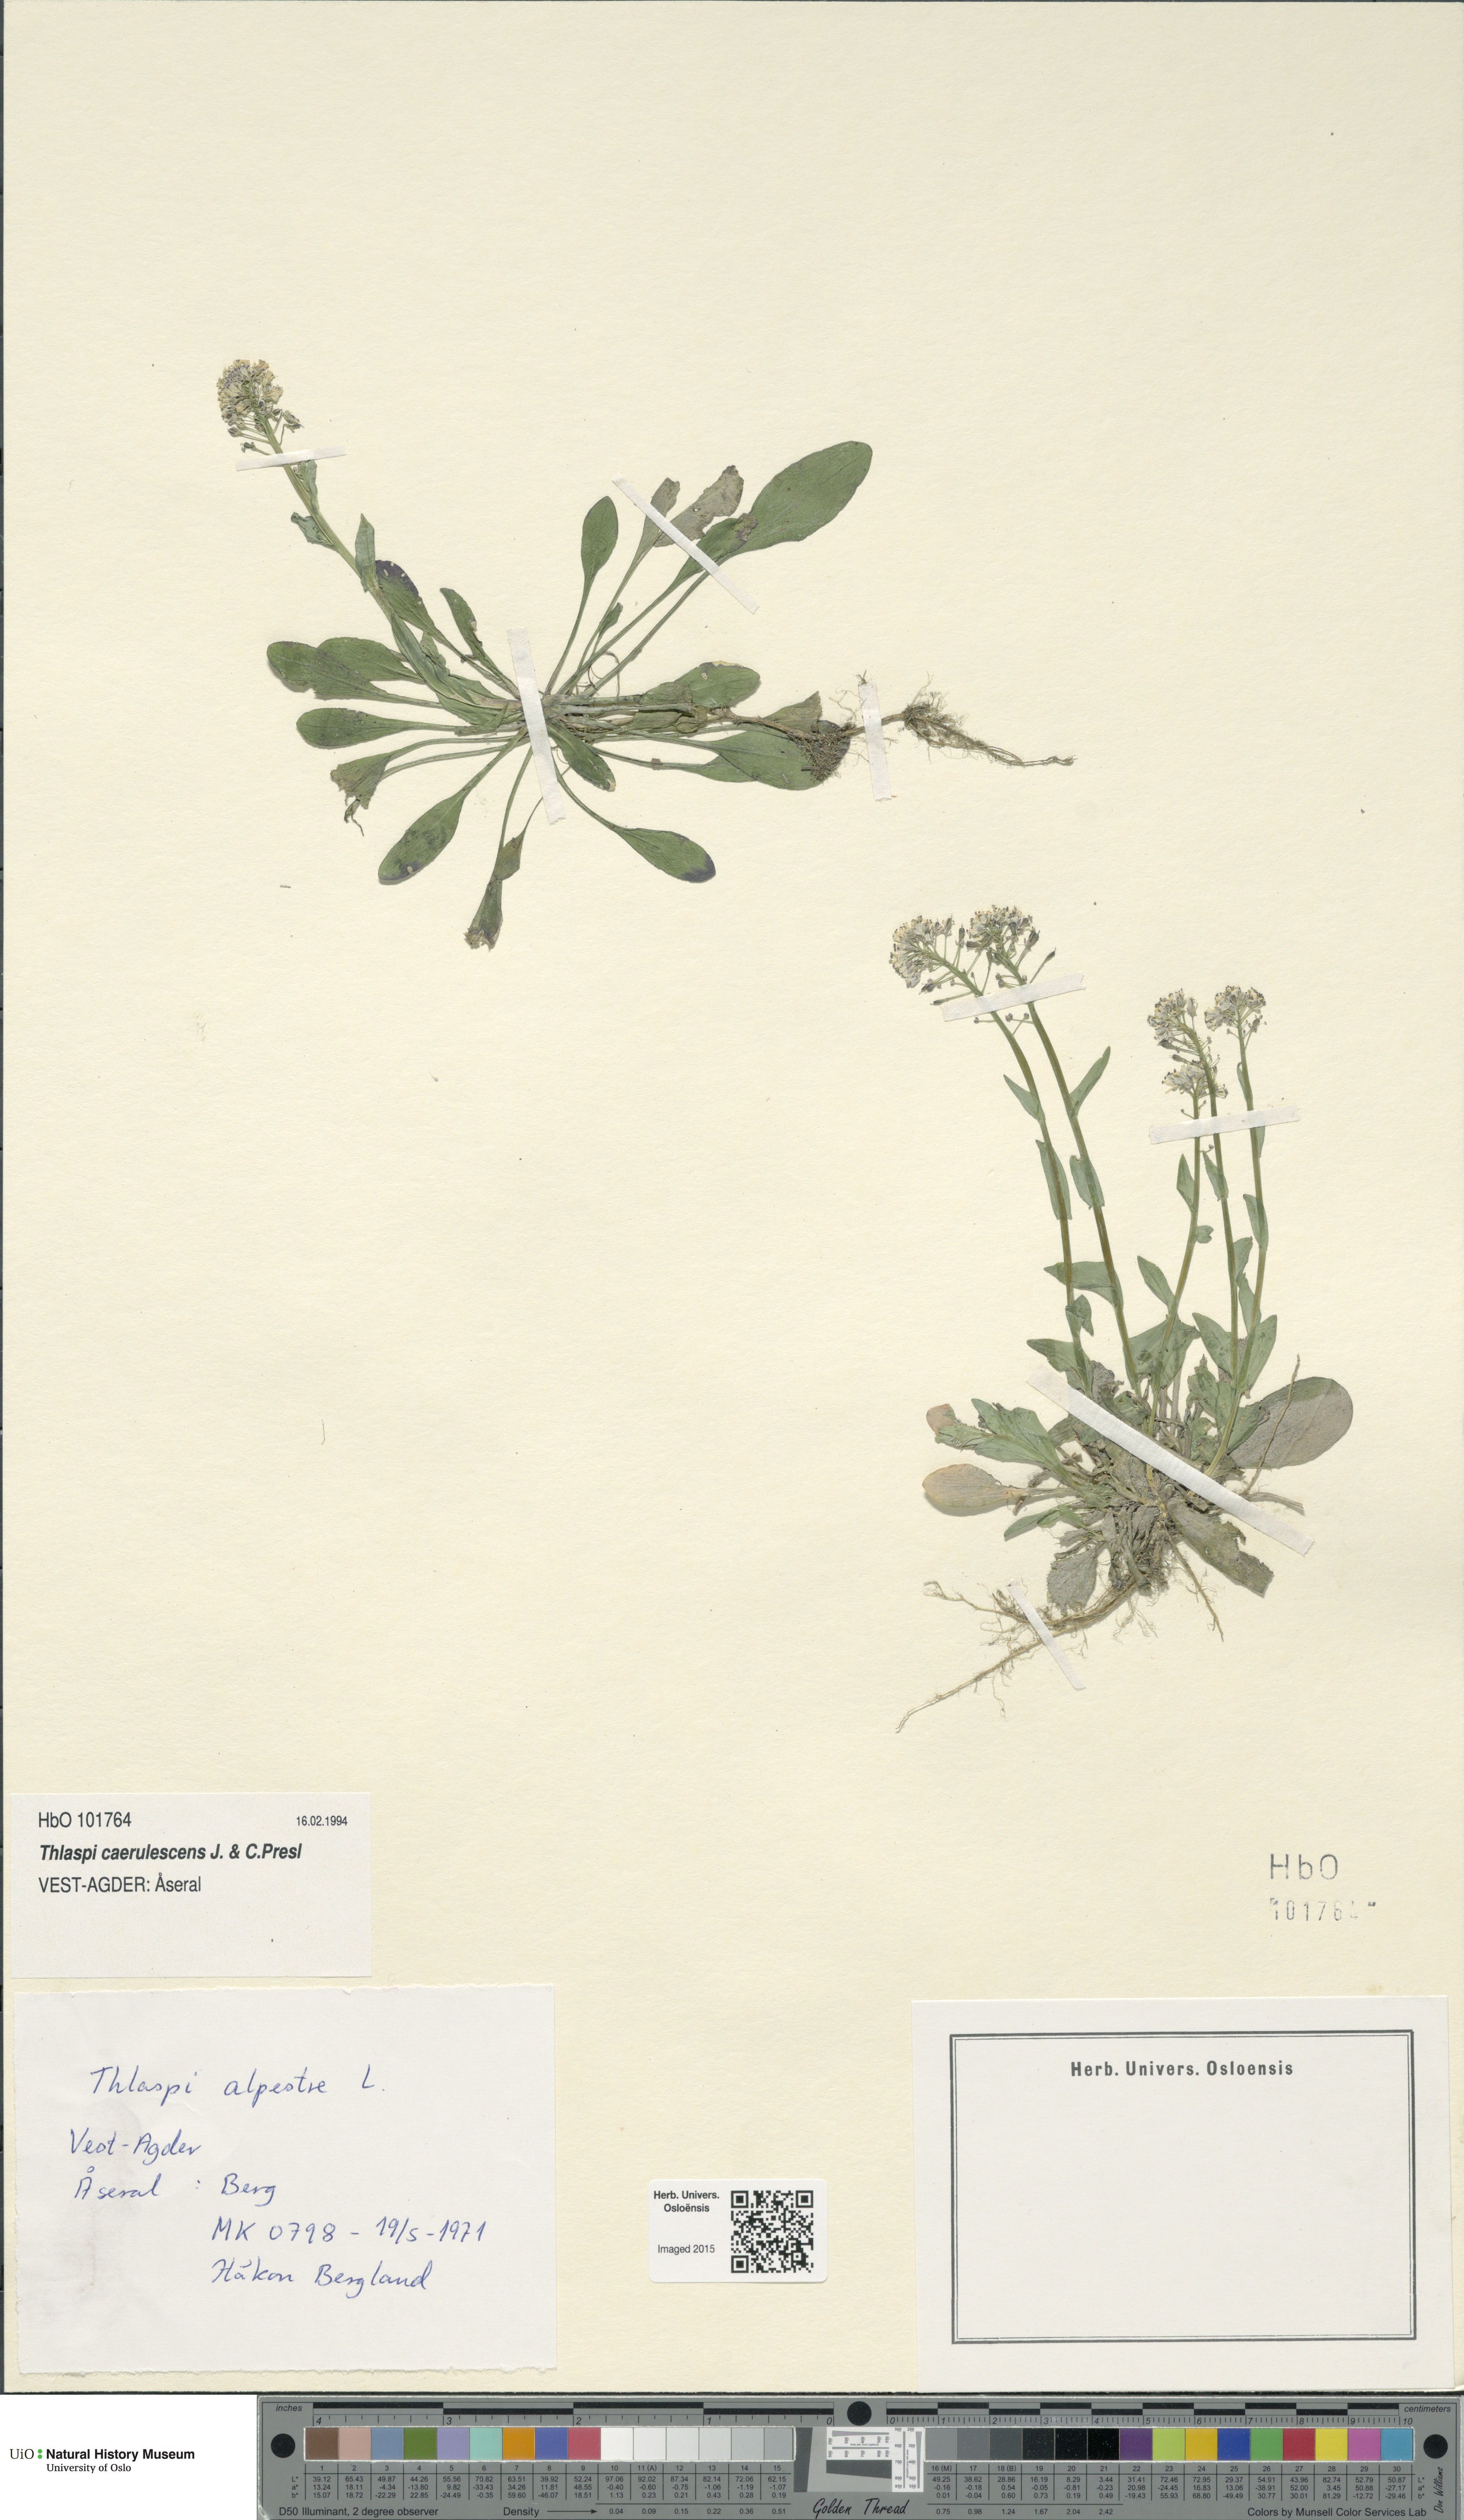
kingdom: Plantae
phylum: Tracheophyta
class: Magnoliopsida
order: Brassicales
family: Brassicaceae
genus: Noccaea
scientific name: Noccaea caerulescens
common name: Alpine pennycress
